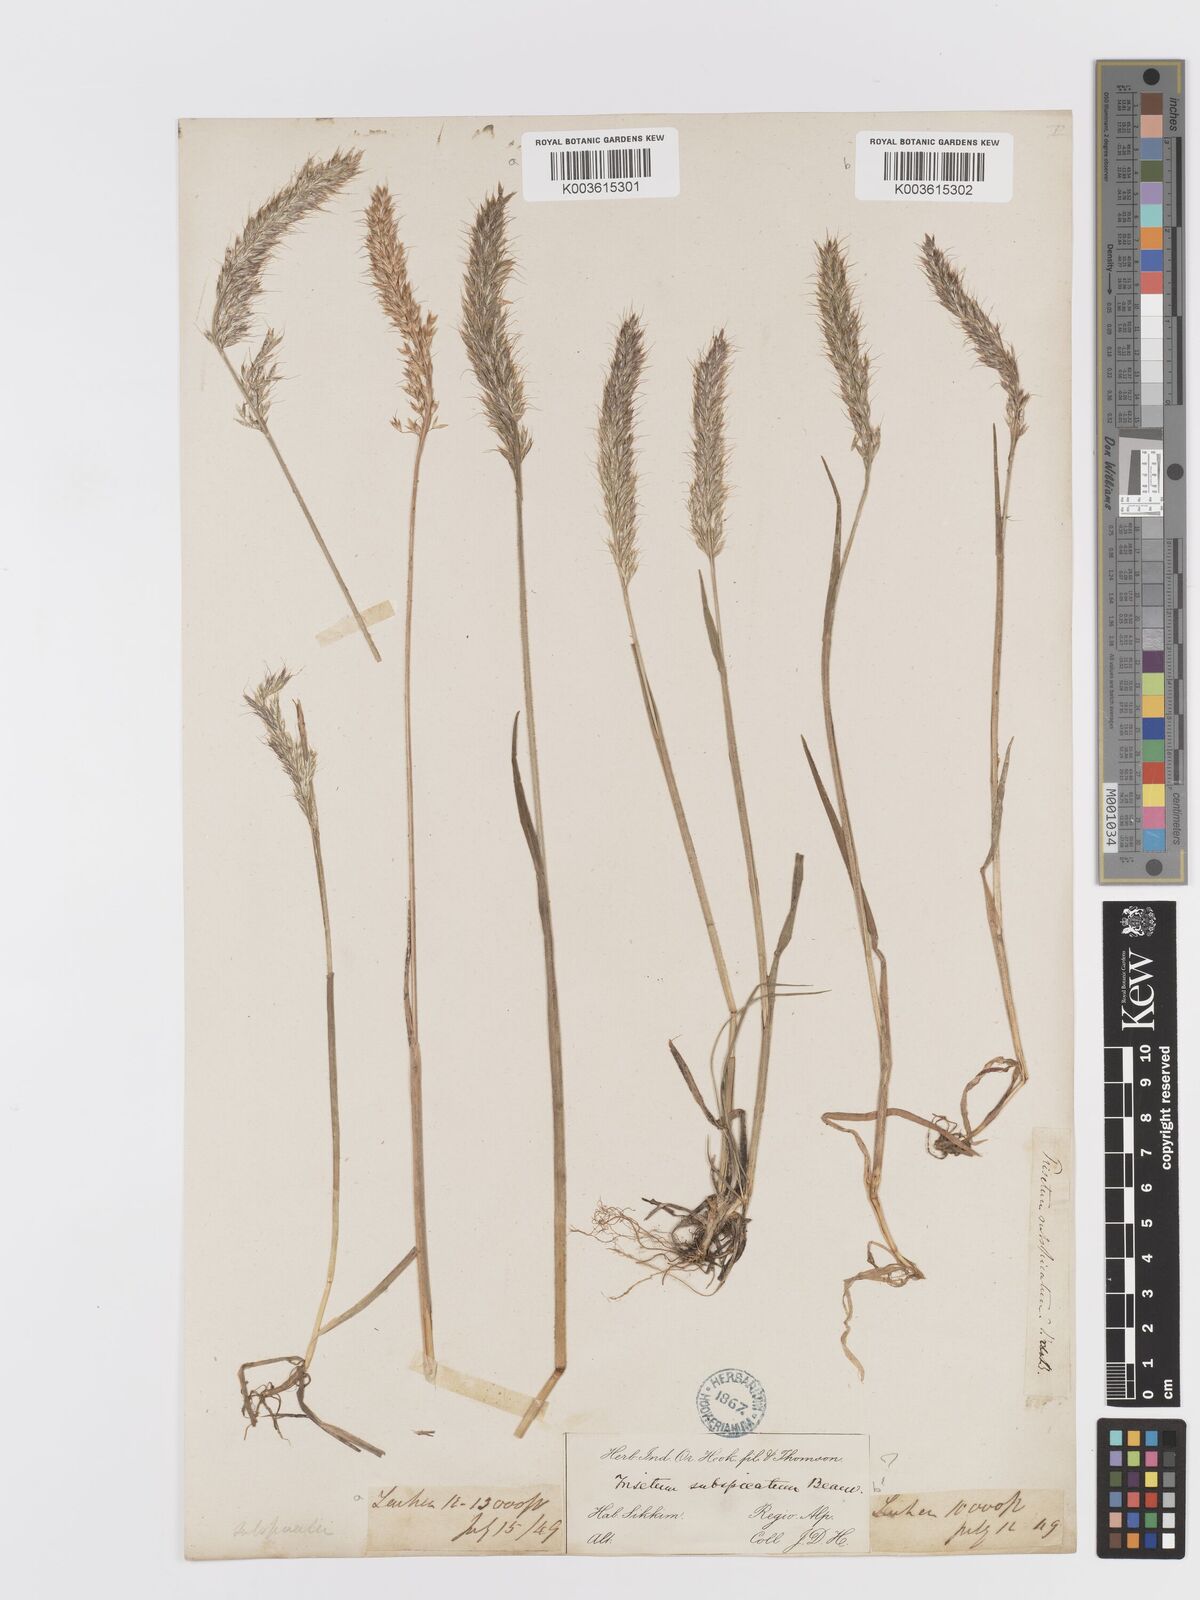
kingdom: Plantae
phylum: Tracheophyta
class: Liliopsida
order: Poales
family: Poaceae
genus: Koeleria
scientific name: Koeleria spicata
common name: Mountain trisetum
